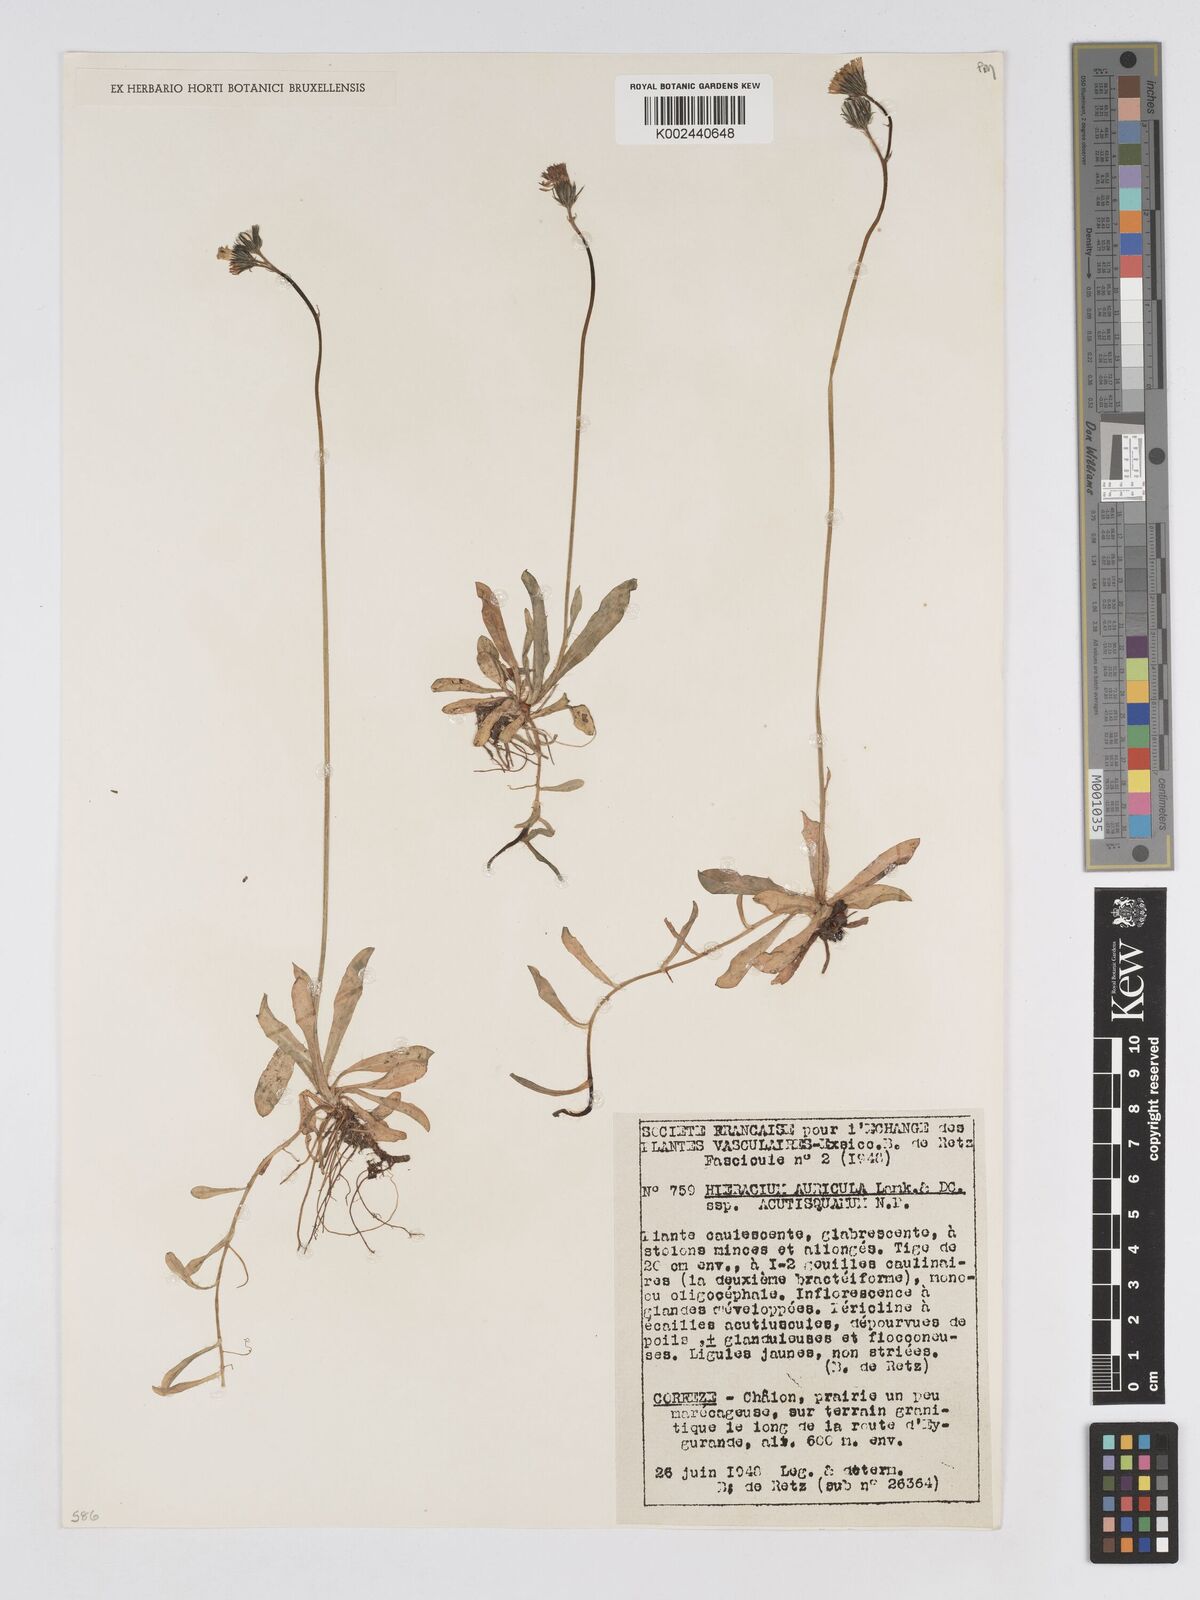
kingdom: Plantae
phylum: Tracheophyta
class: Magnoliopsida
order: Asterales
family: Asteraceae
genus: Pilosella
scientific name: Pilosella lactucella
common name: Glaucous fox-and-cubs
